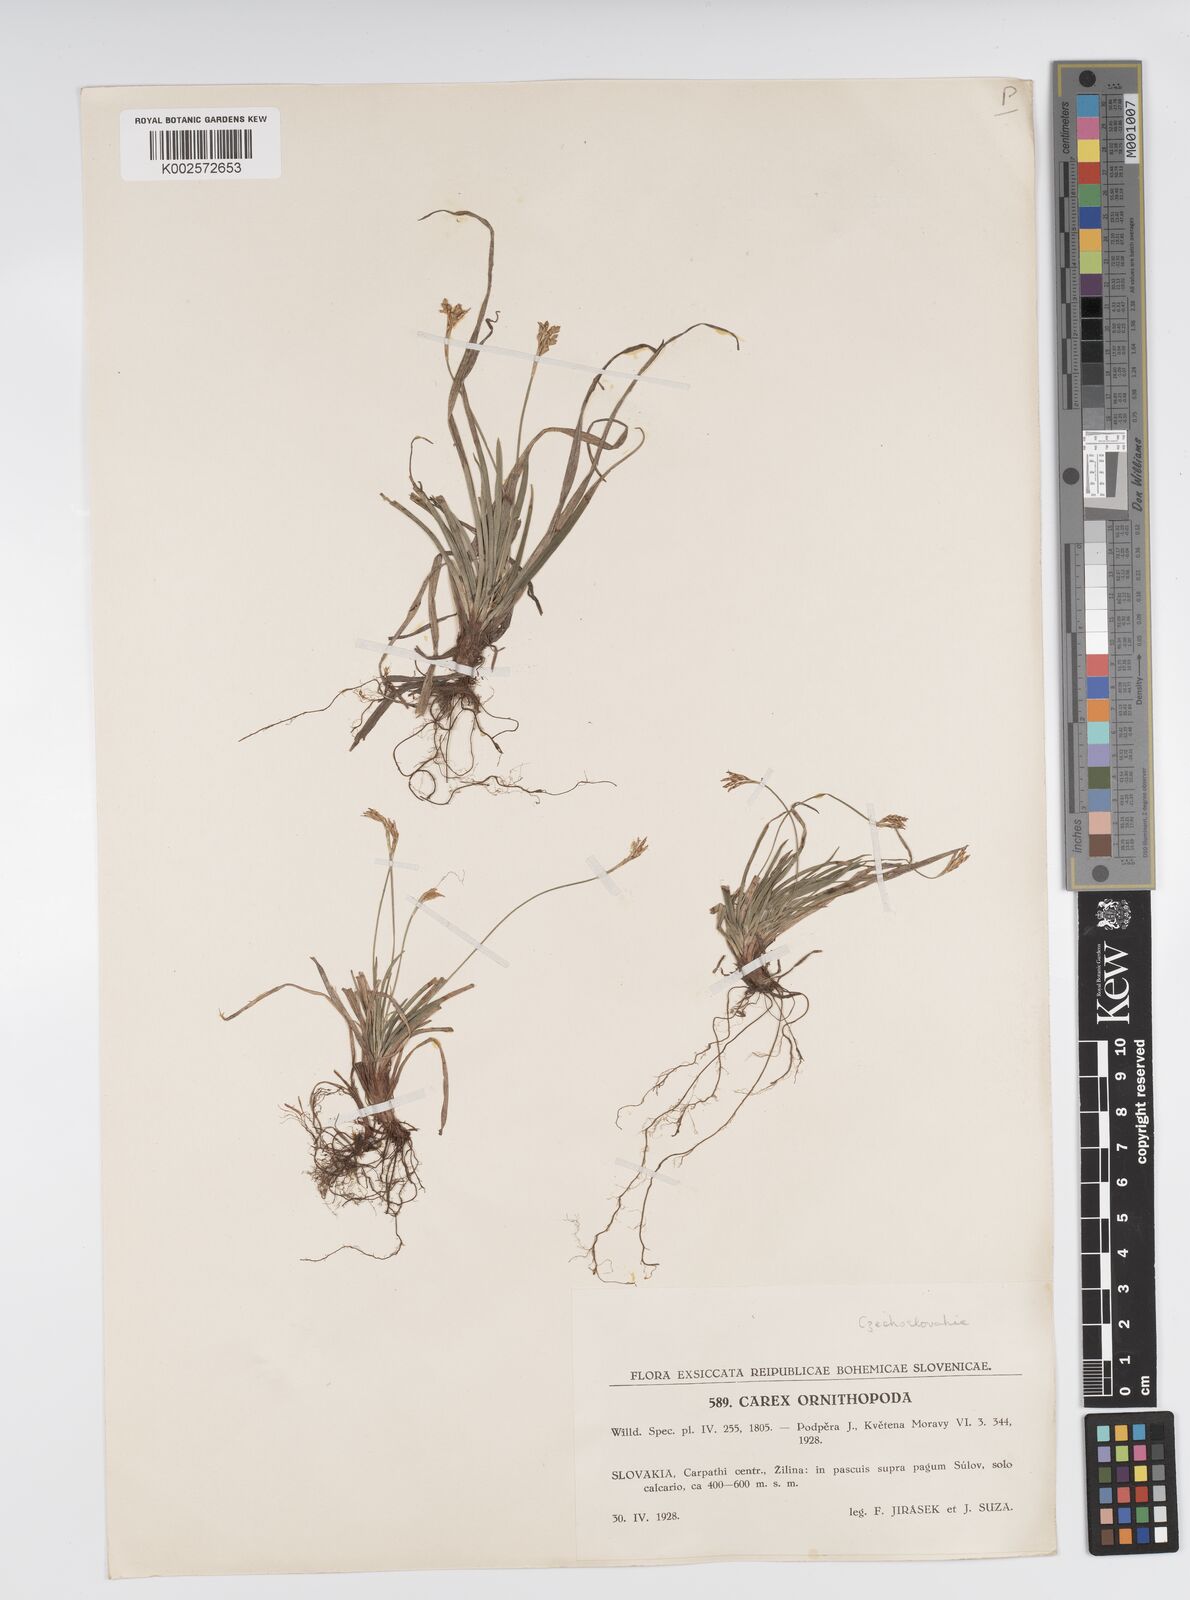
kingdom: Plantae
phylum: Tracheophyta
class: Liliopsida
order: Poales
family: Cyperaceae
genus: Carex
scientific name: Carex ornithopoda
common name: Bird's-foot sedge
